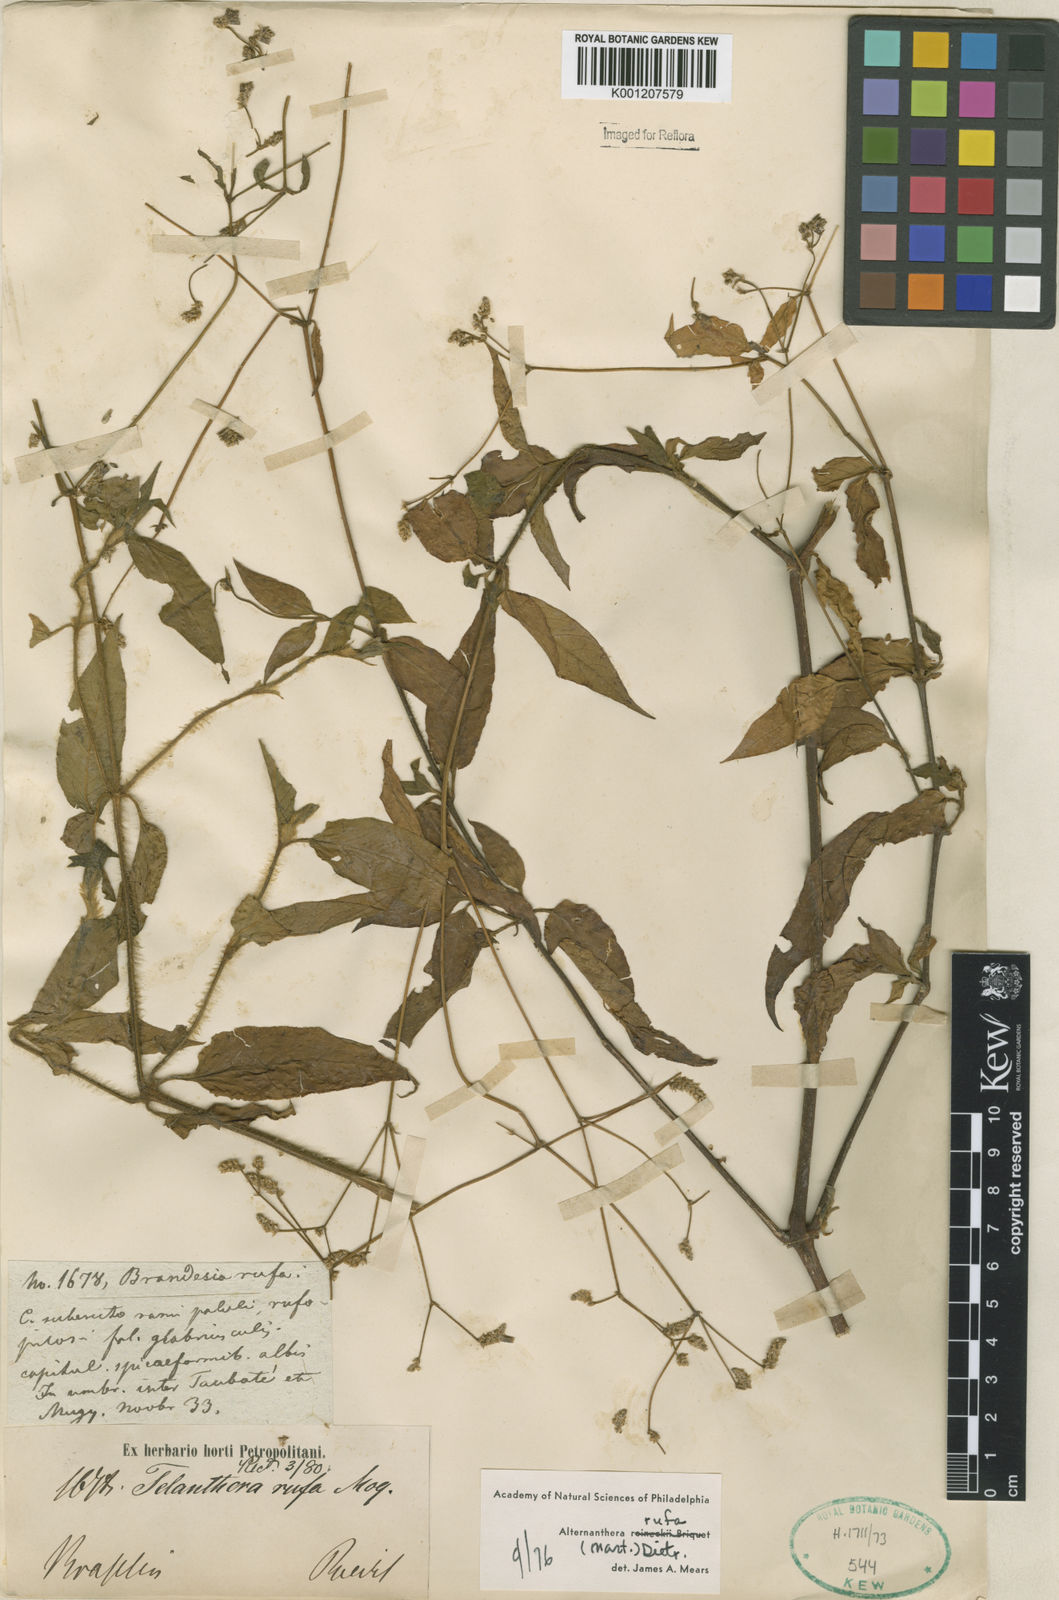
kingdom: Plantae
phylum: Tracheophyta
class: Magnoliopsida
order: Caryophyllales
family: Amaranthaceae
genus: Alternanthera
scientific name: Alternanthera rufa
